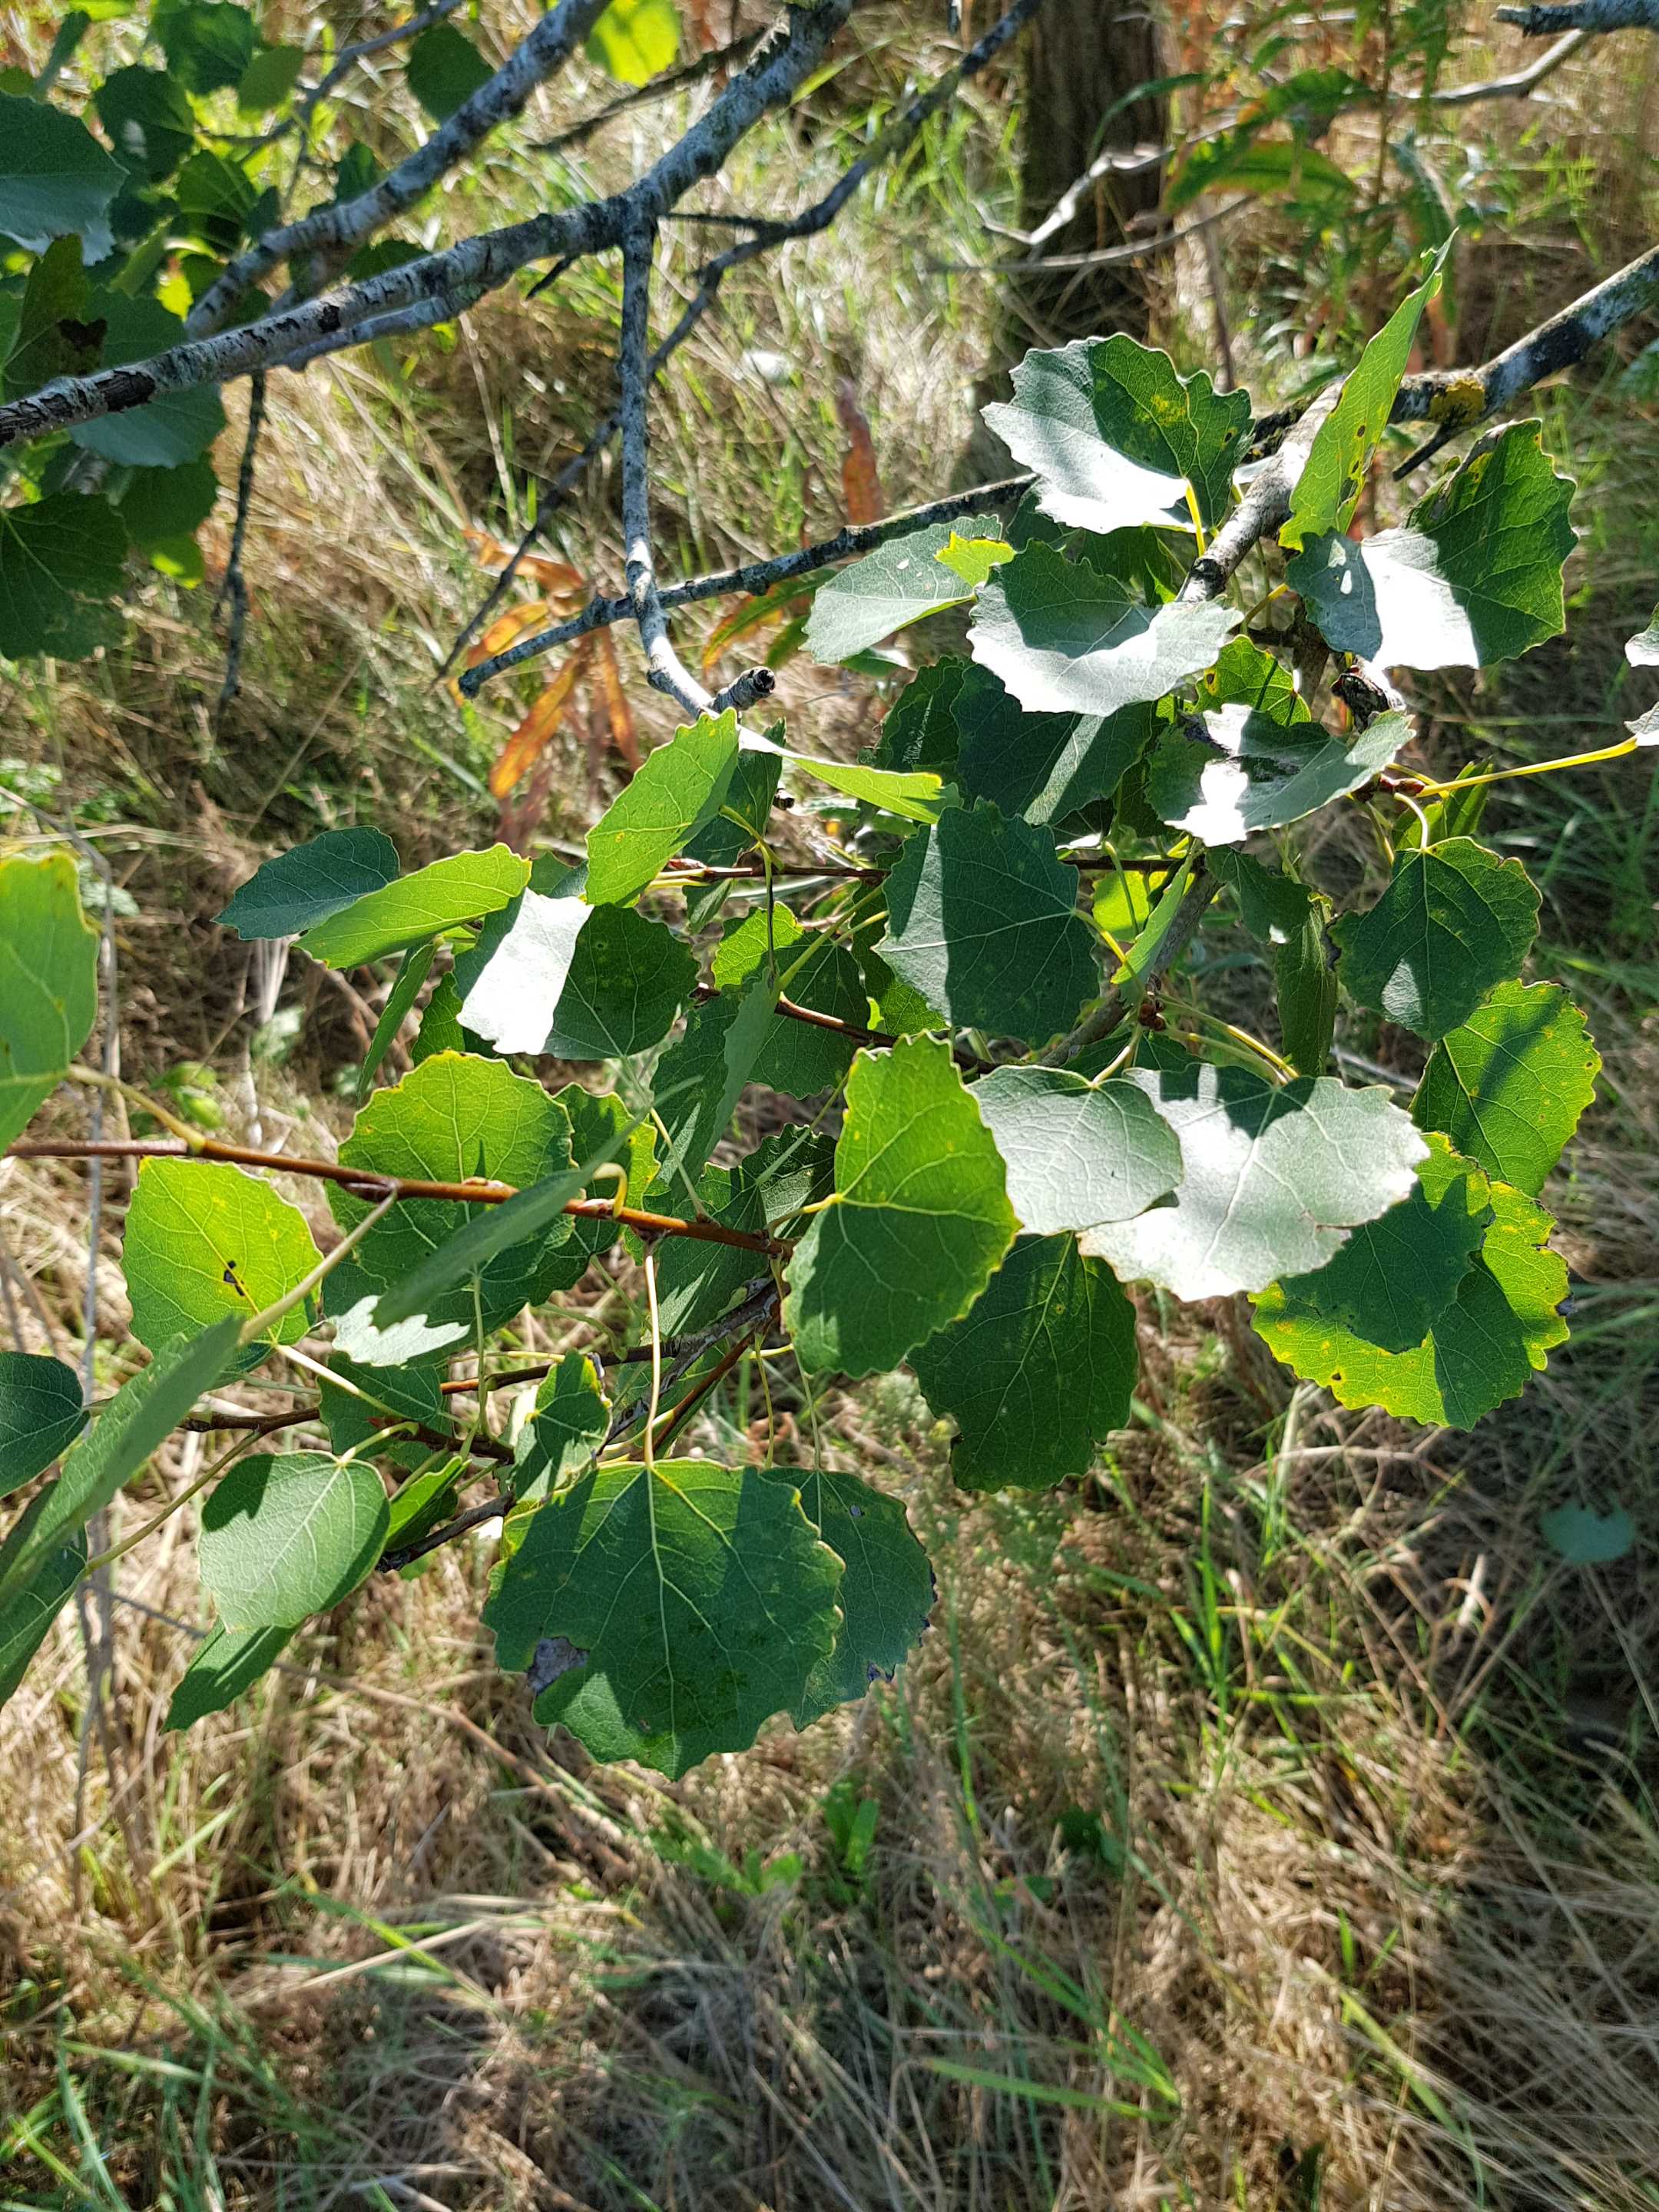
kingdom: Fungi
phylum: Basidiomycota
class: Agaricomycetes
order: Boletales
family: Boletaceae
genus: Leccinum
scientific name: Leccinum albostipitatum
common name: aspe-skælrørhat
